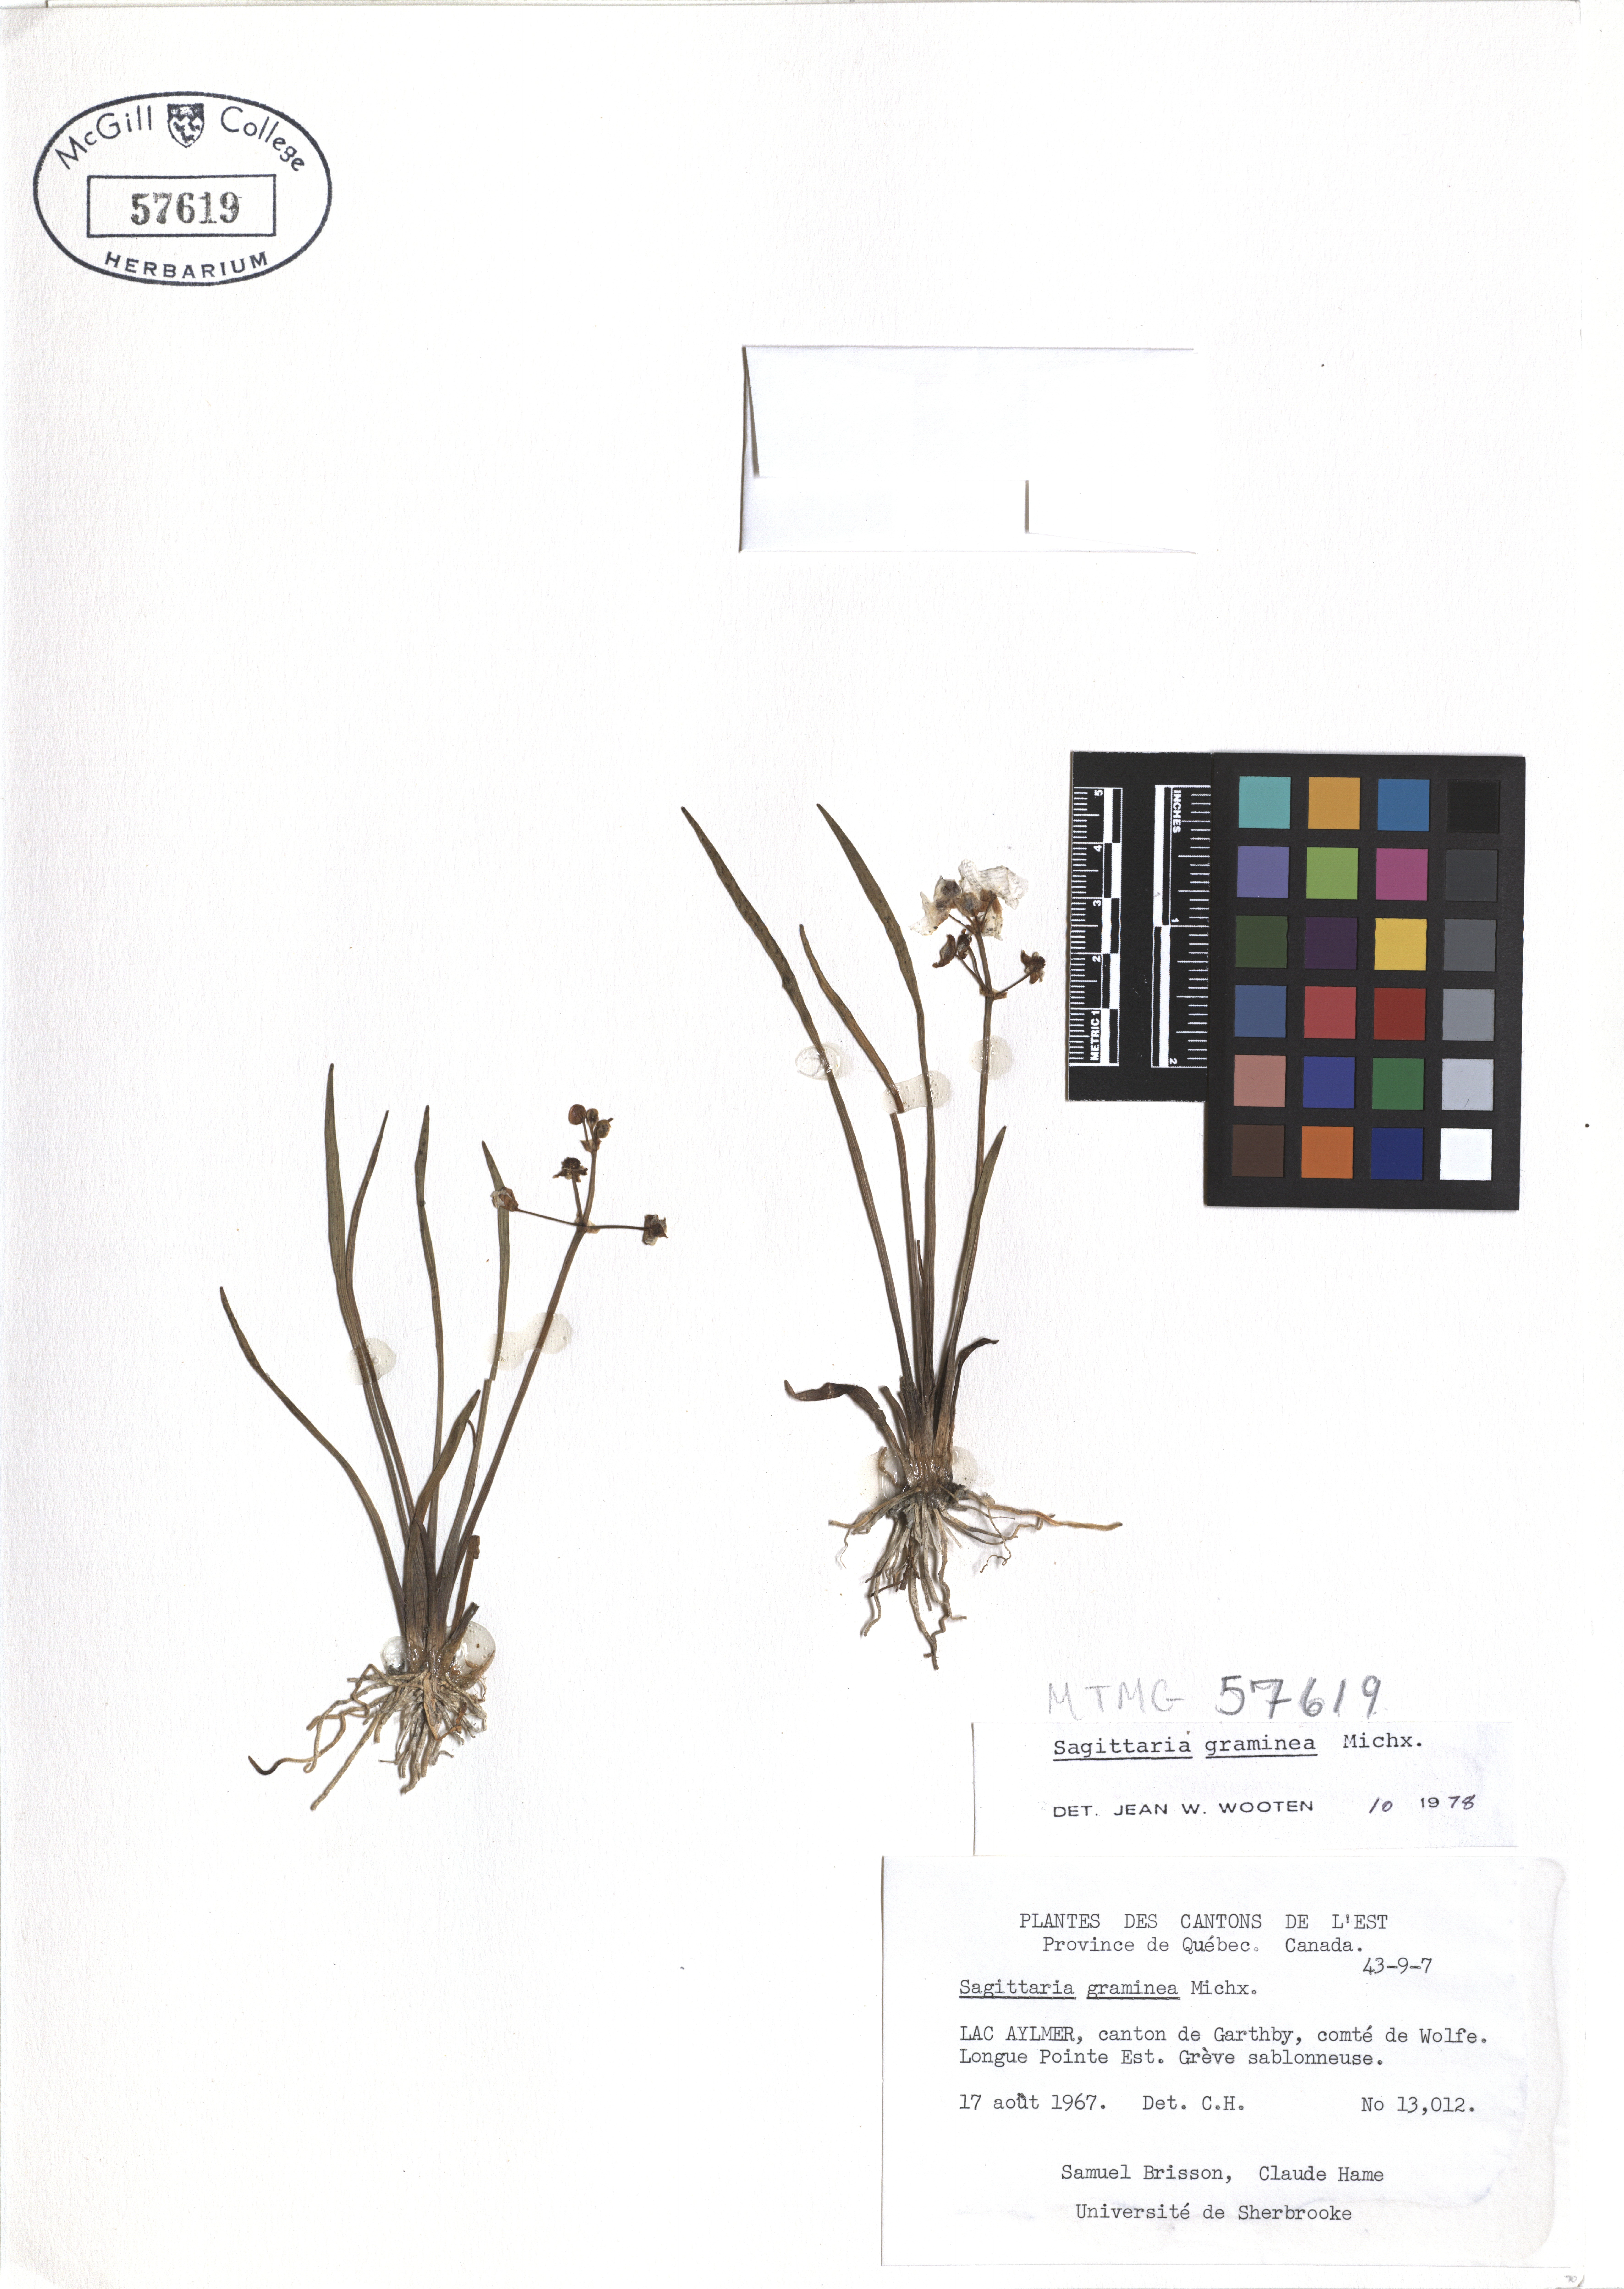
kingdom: Plantae
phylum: Tracheophyta
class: Liliopsida
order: Alismatales
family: Alismataceae
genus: Sagittaria
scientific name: Sagittaria graminea
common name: Grass-leaved arrowhead
